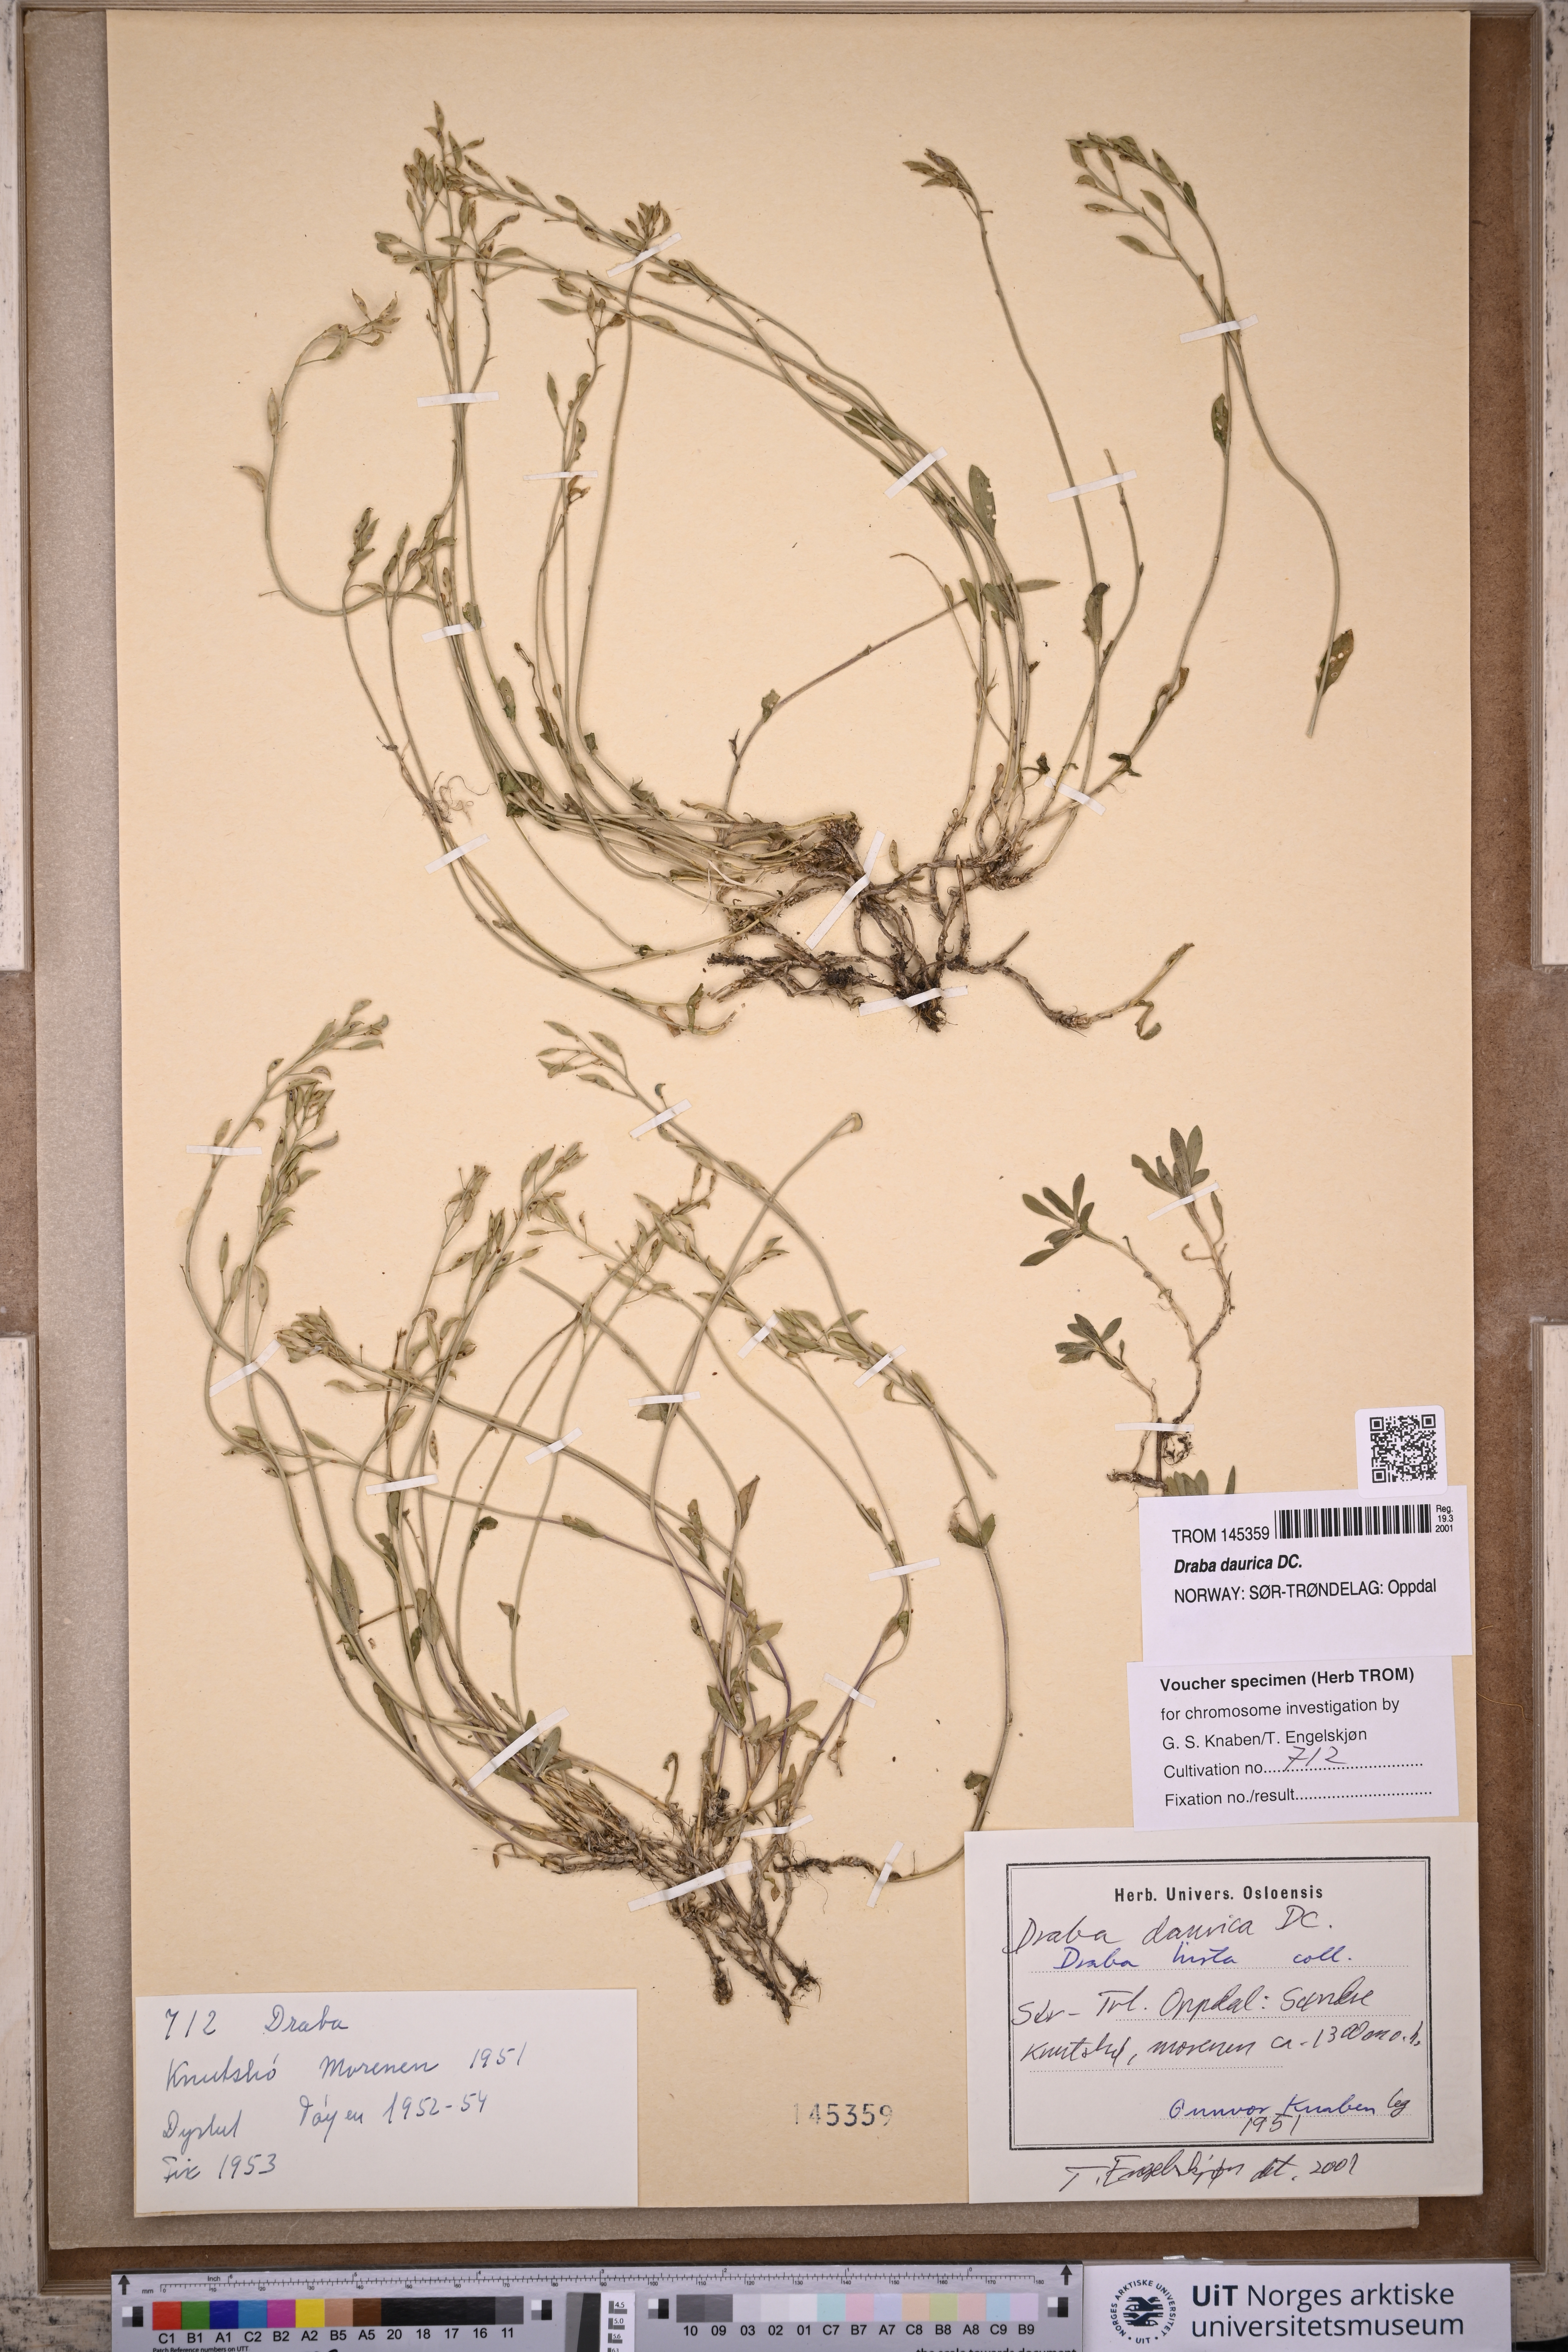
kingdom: Plantae
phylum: Tracheophyta
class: Magnoliopsida
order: Brassicales
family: Brassicaceae
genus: Draba
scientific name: Draba glabella
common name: Glaucous draba
